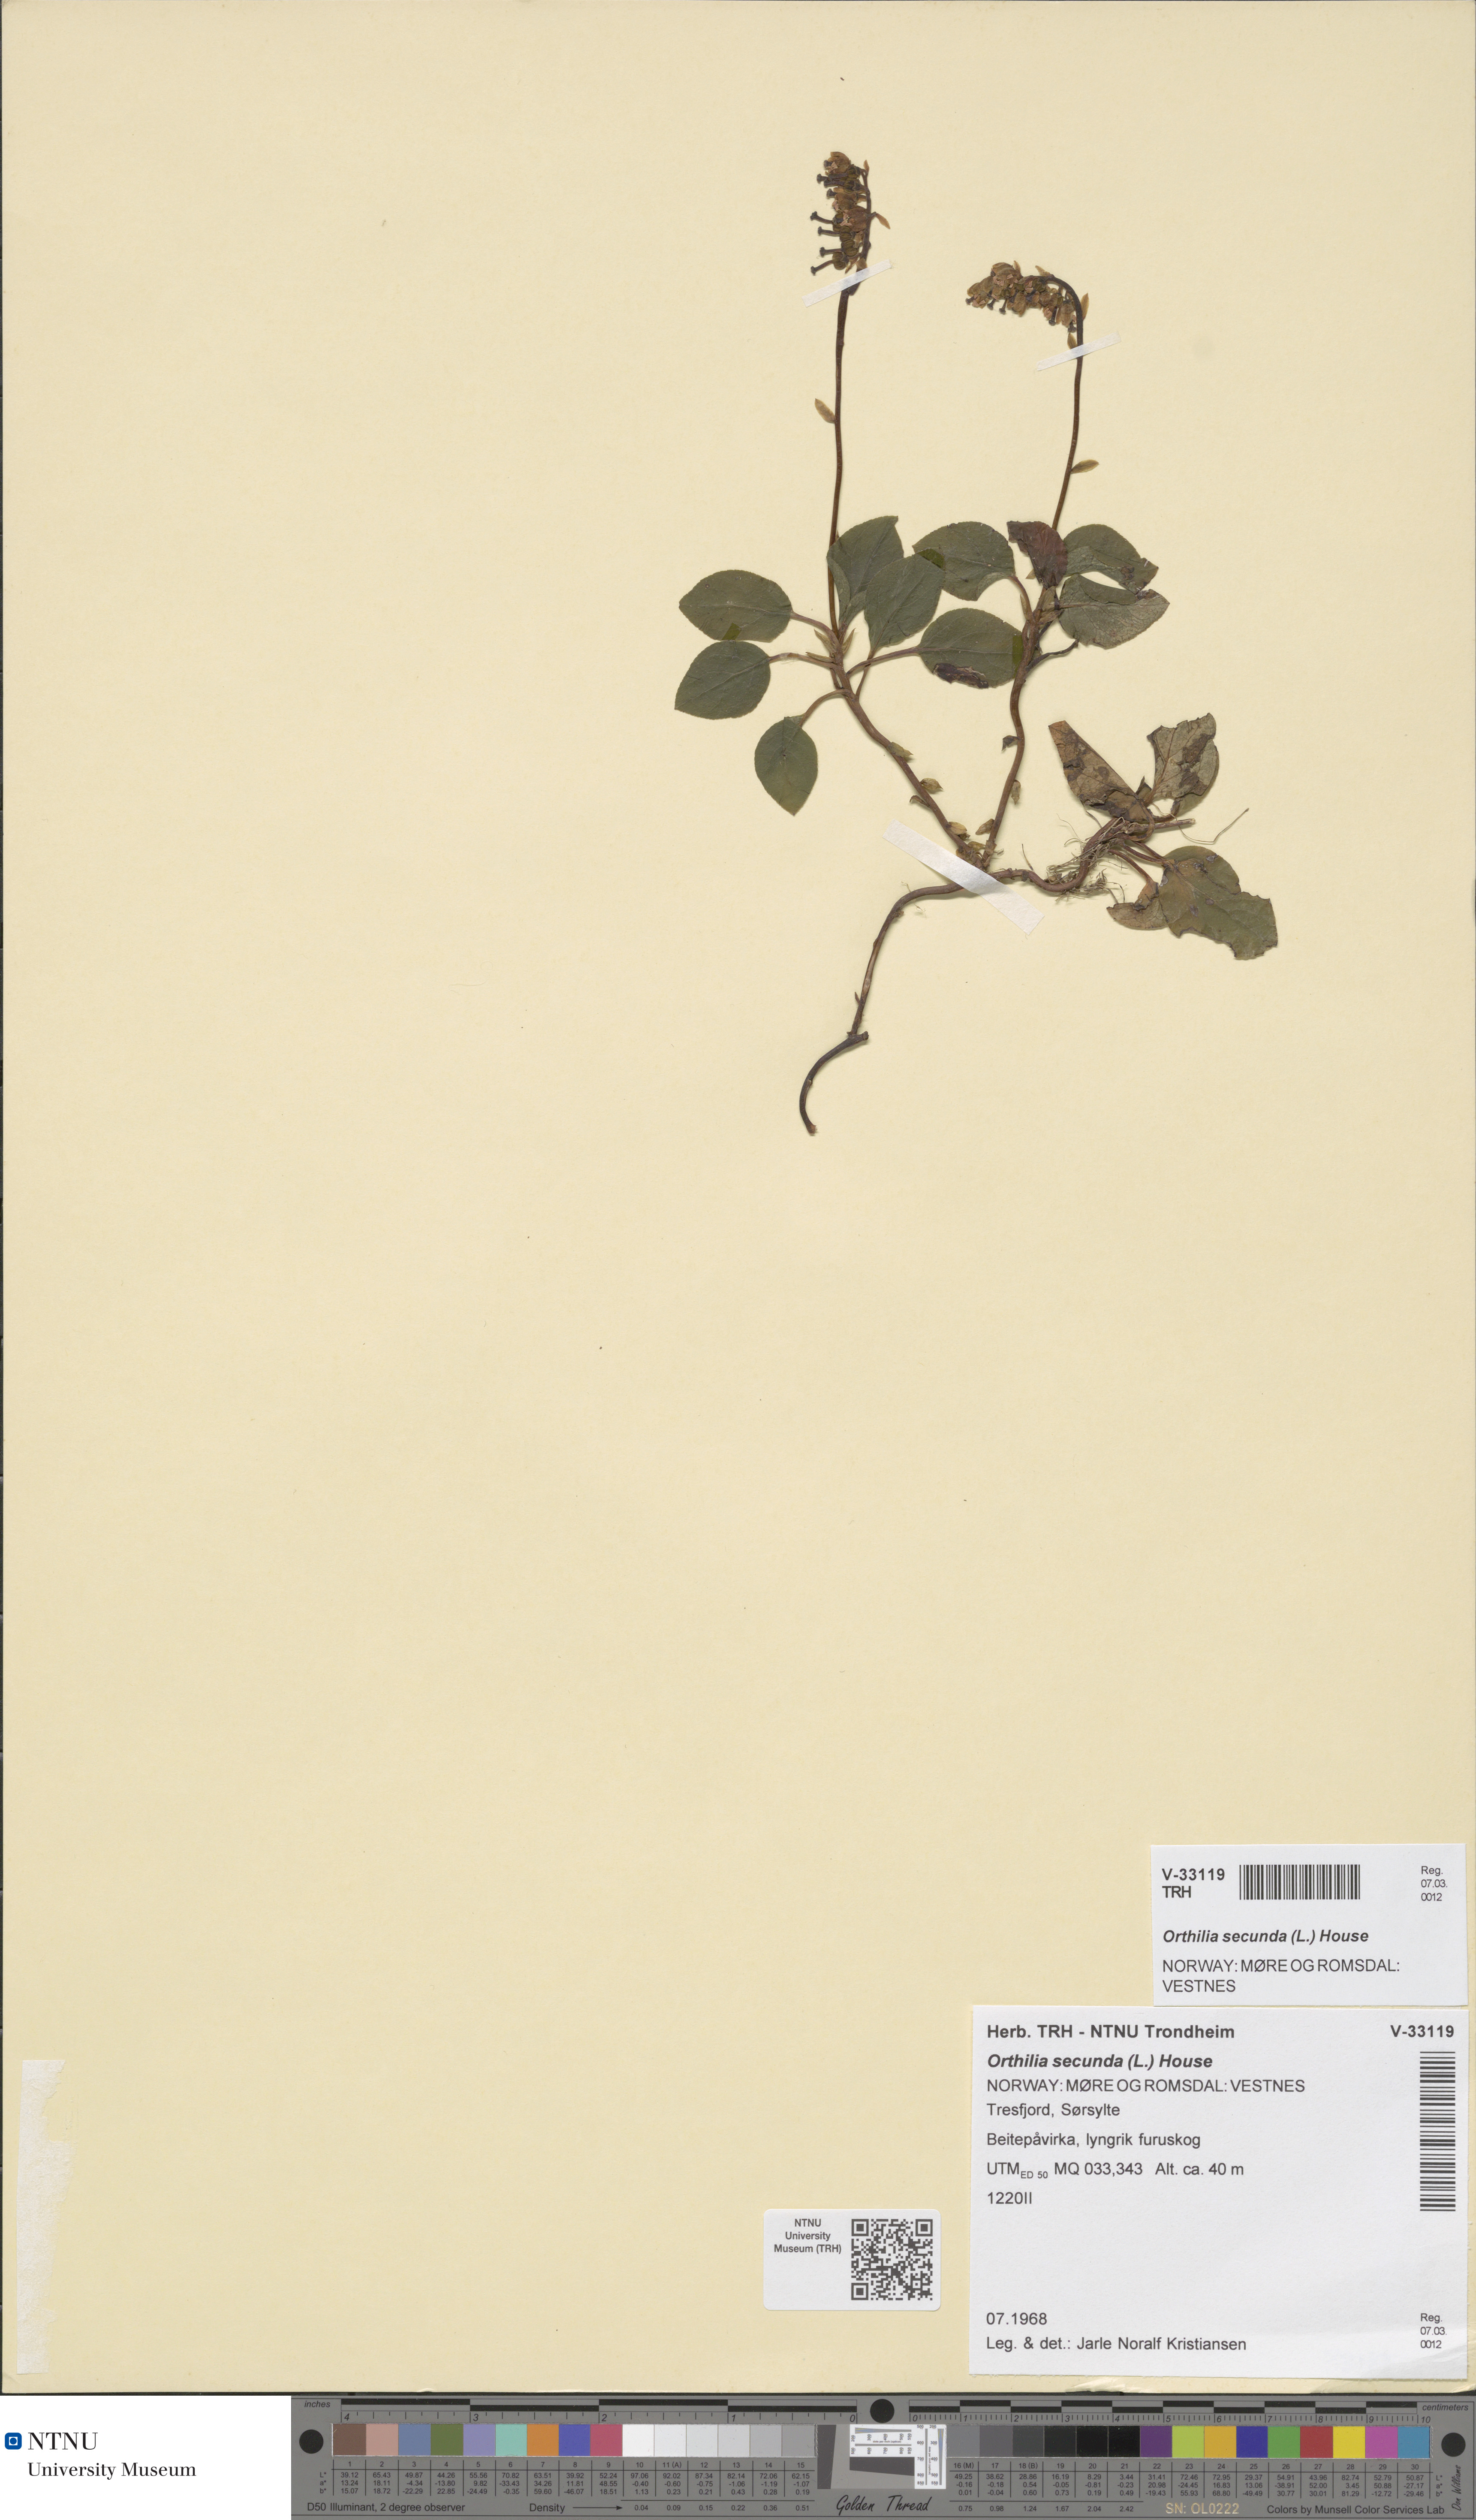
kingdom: Plantae
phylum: Tracheophyta
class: Magnoliopsida
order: Ericales
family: Ericaceae
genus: Orthilia
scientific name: Orthilia secunda
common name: One-sided orthilia
